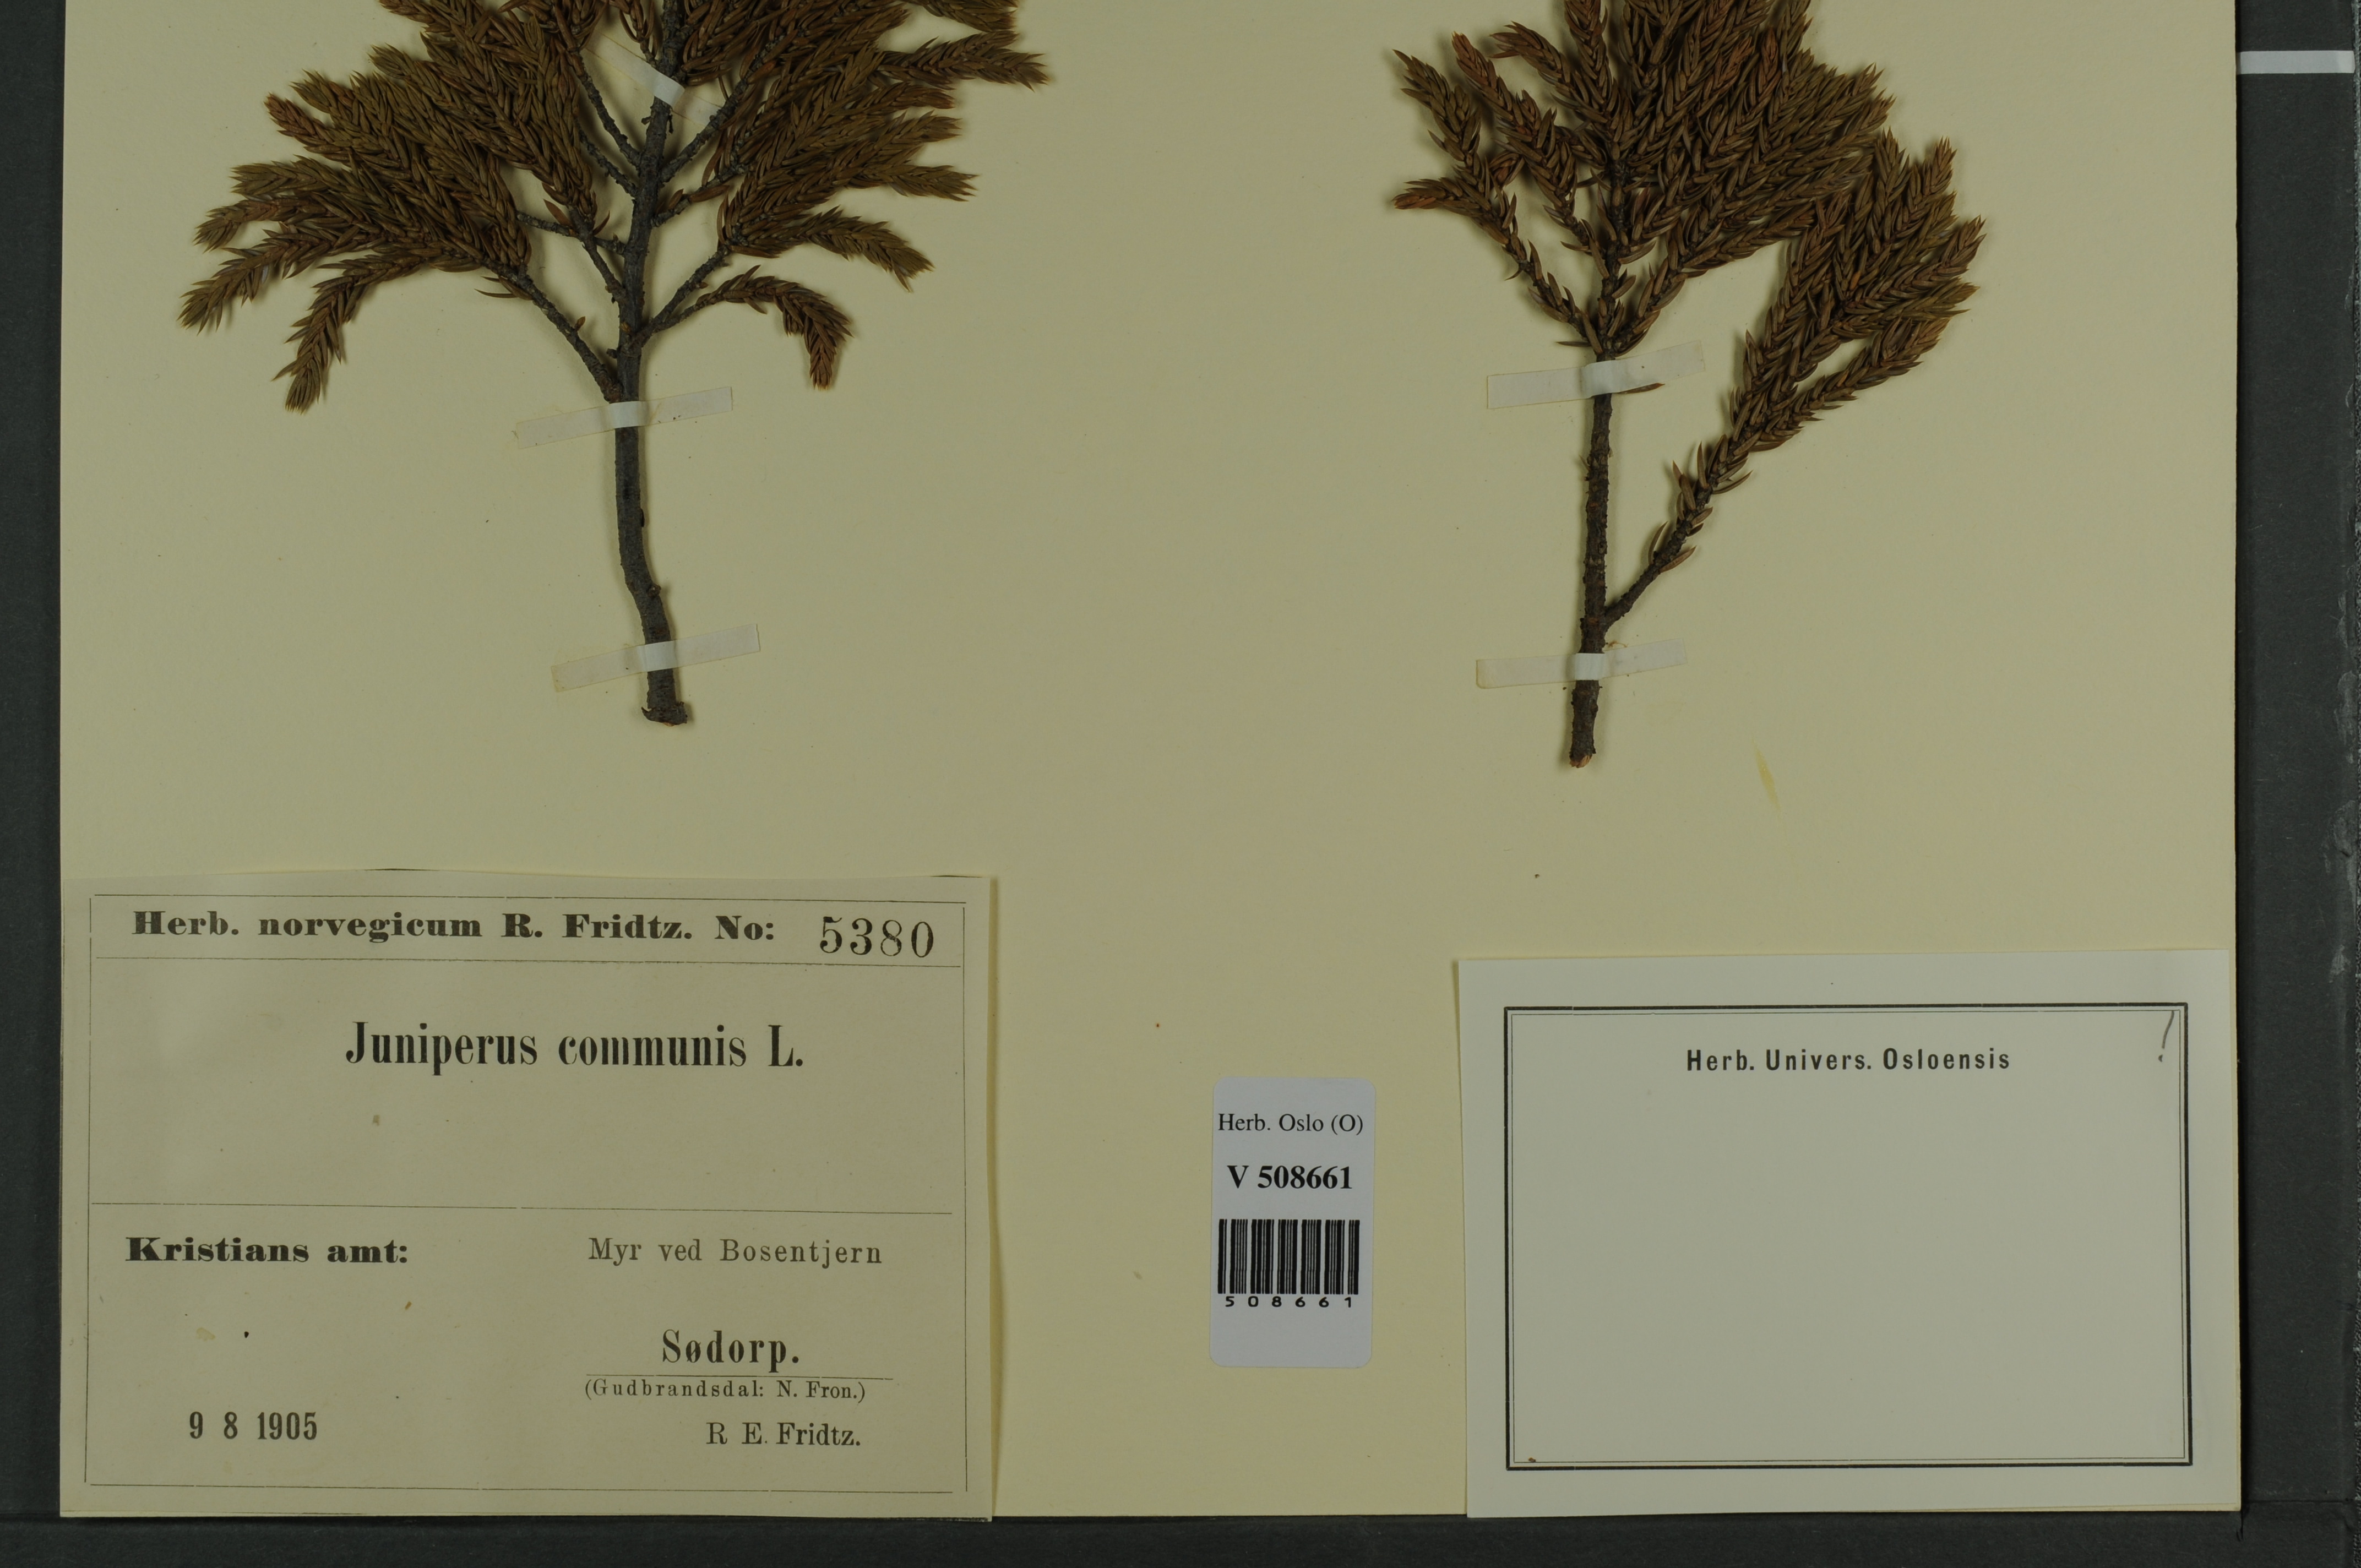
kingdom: Plantae
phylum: Tracheophyta
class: Pinopsida
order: Pinales
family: Cupressaceae
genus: Juniperus
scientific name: Juniperus communis
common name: Common juniper
